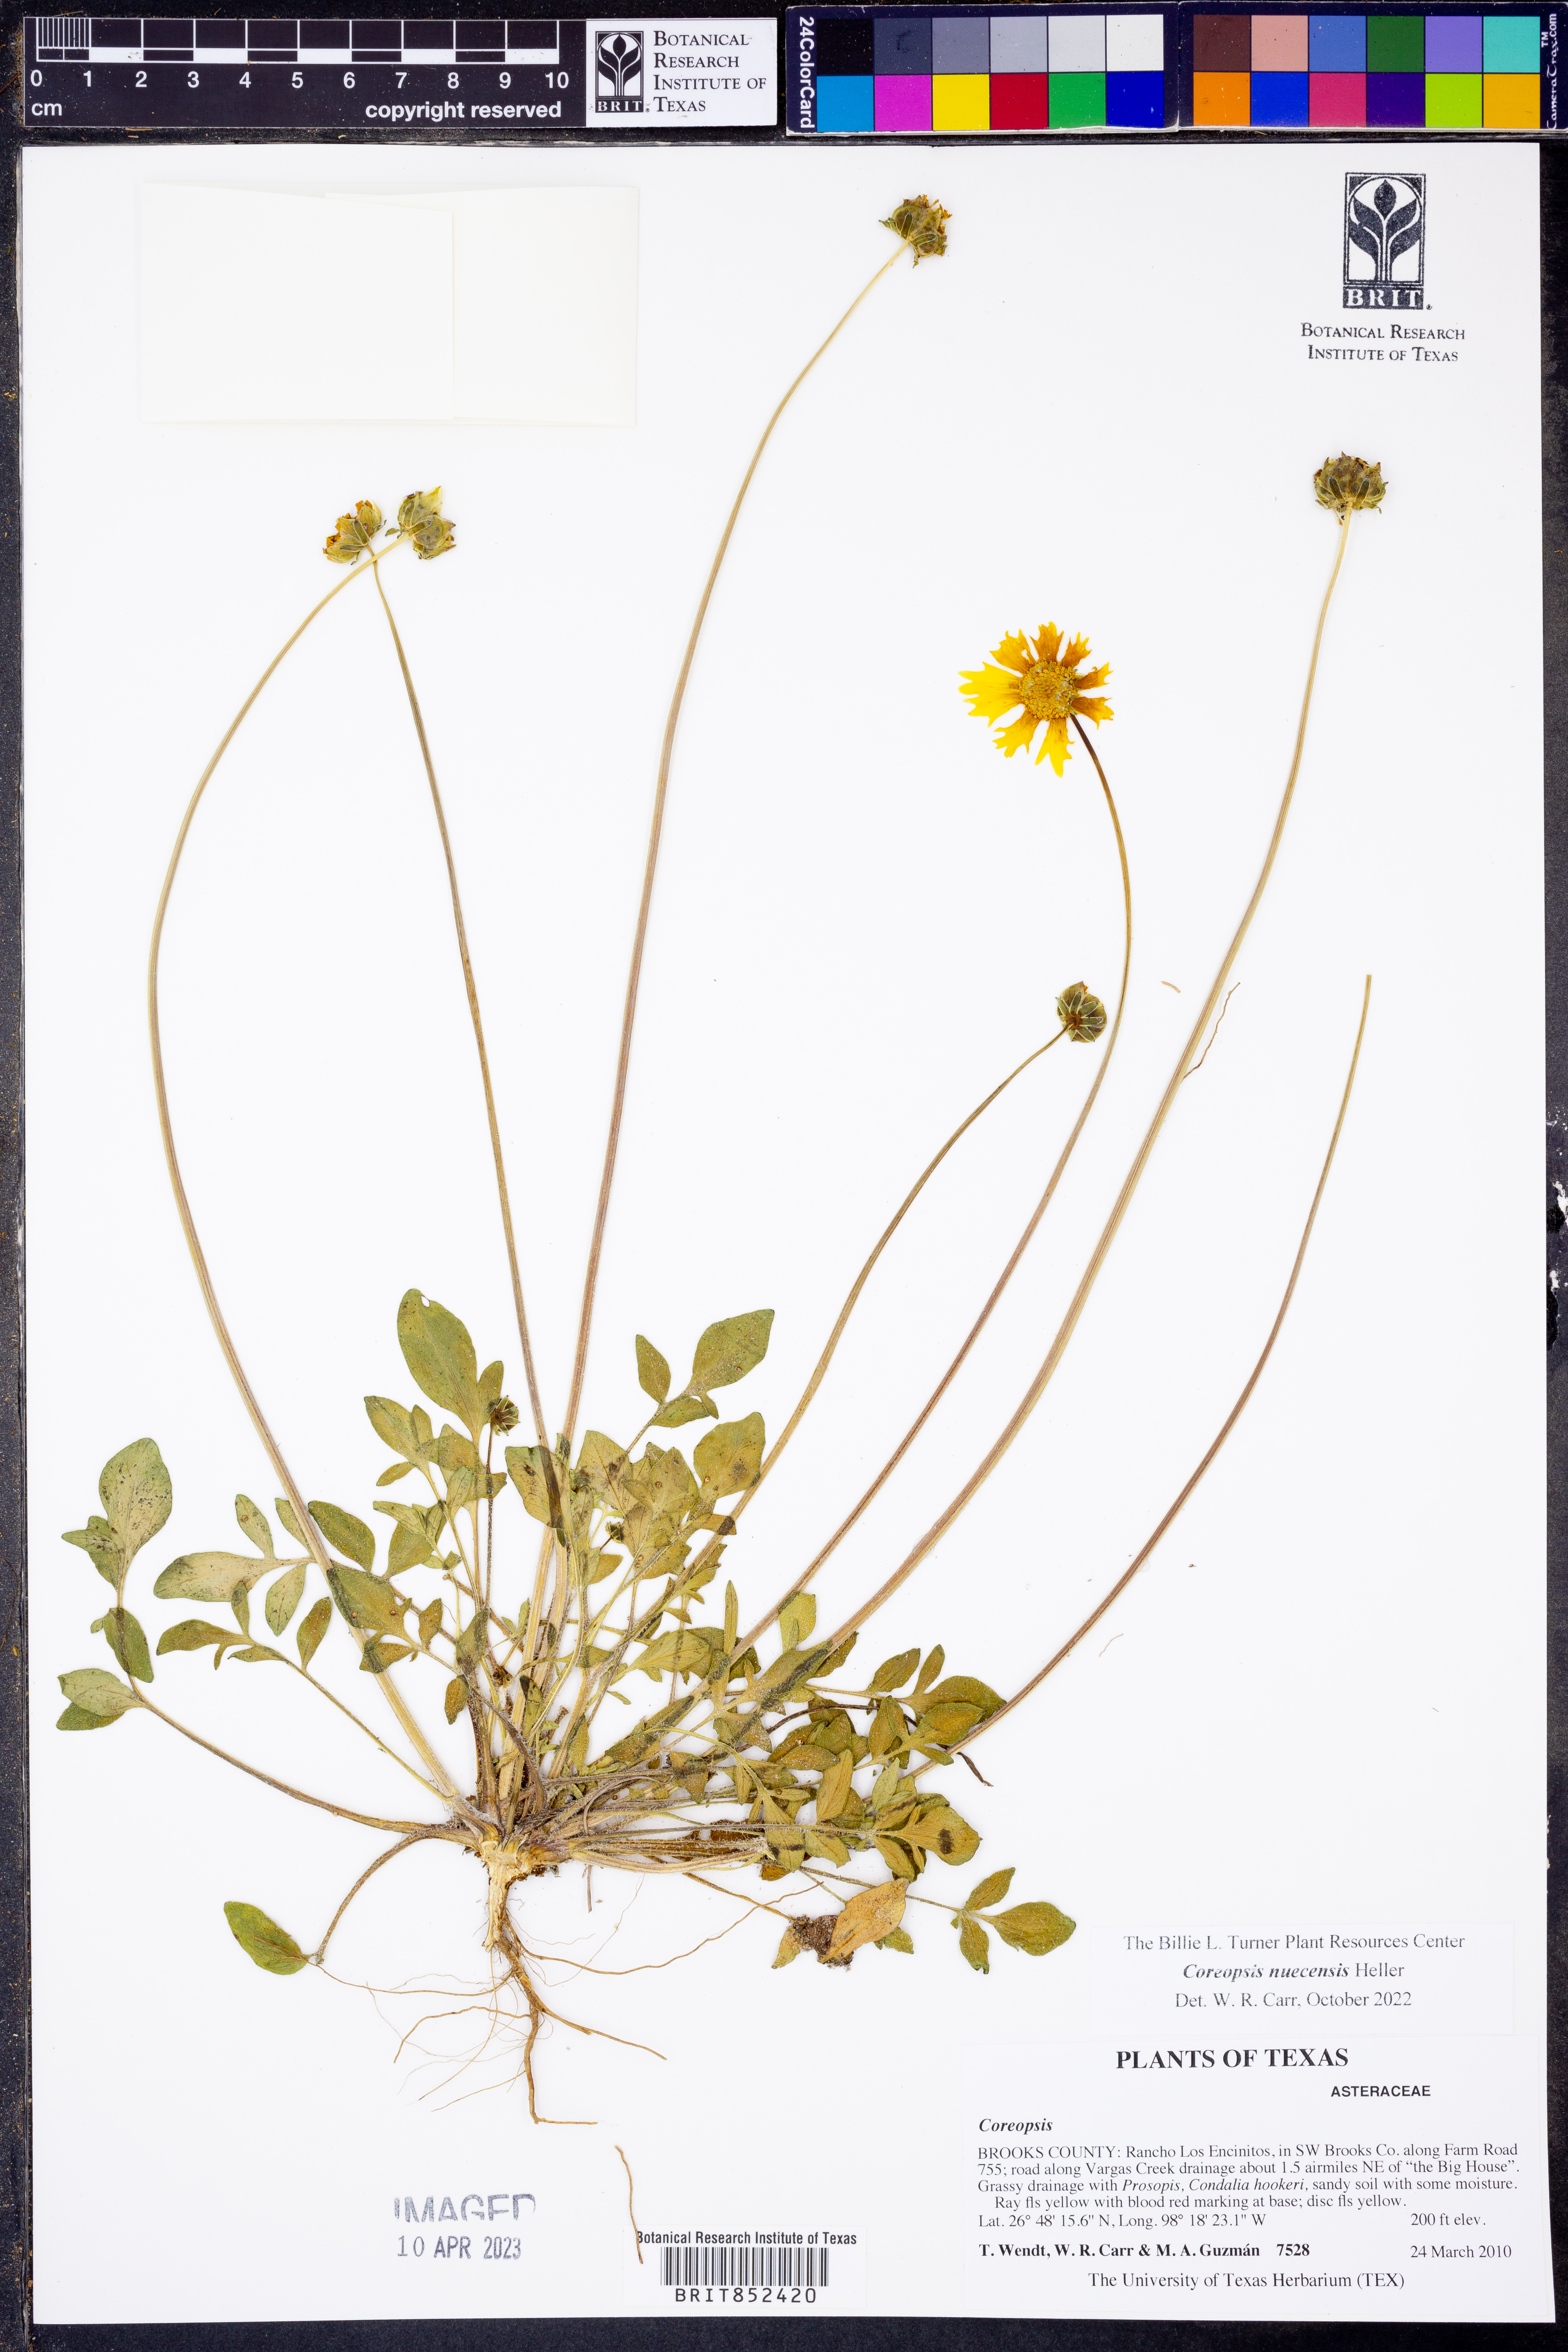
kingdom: Plantae
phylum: Tracheophyta
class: Magnoliopsida
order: Asterales
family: Asteraceae
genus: Coreopsis
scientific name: Coreopsis nuecensis
